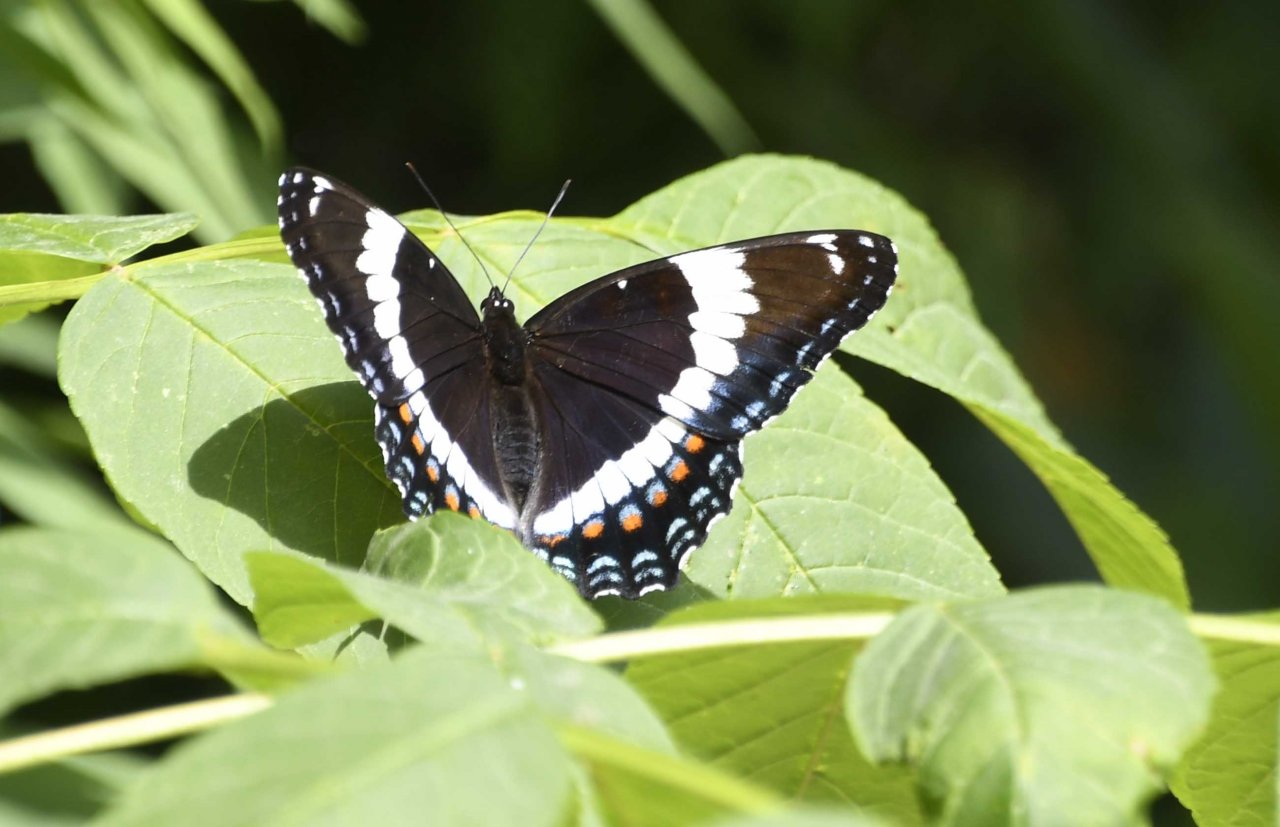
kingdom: Animalia
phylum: Arthropoda
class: Insecta
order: Lepidoptera
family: Nymphalidae
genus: Limenitis
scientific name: Limenitis arthemis
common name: Red-spotted Admiral
